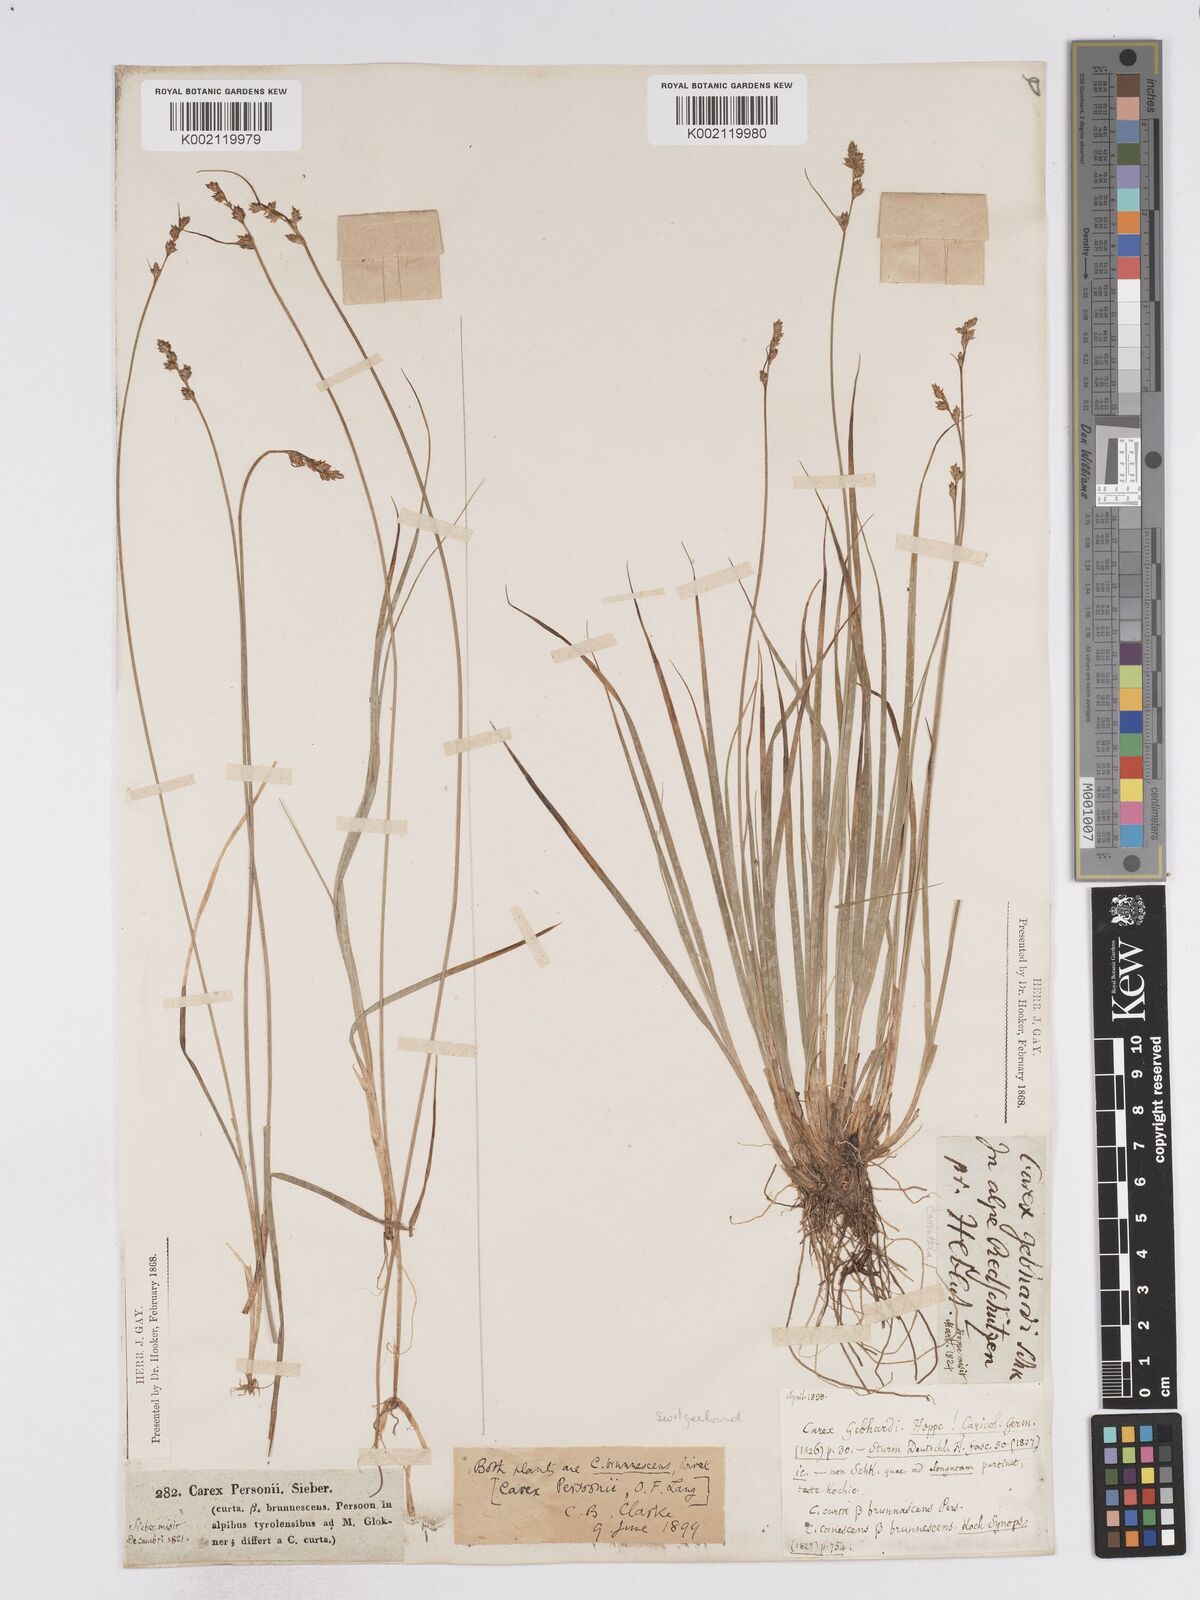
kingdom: Plantae
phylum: Tracheophyta
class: Liliopsida
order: Poales
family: Cyperaceae
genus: Carex
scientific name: Carex canescens
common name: White sedge
